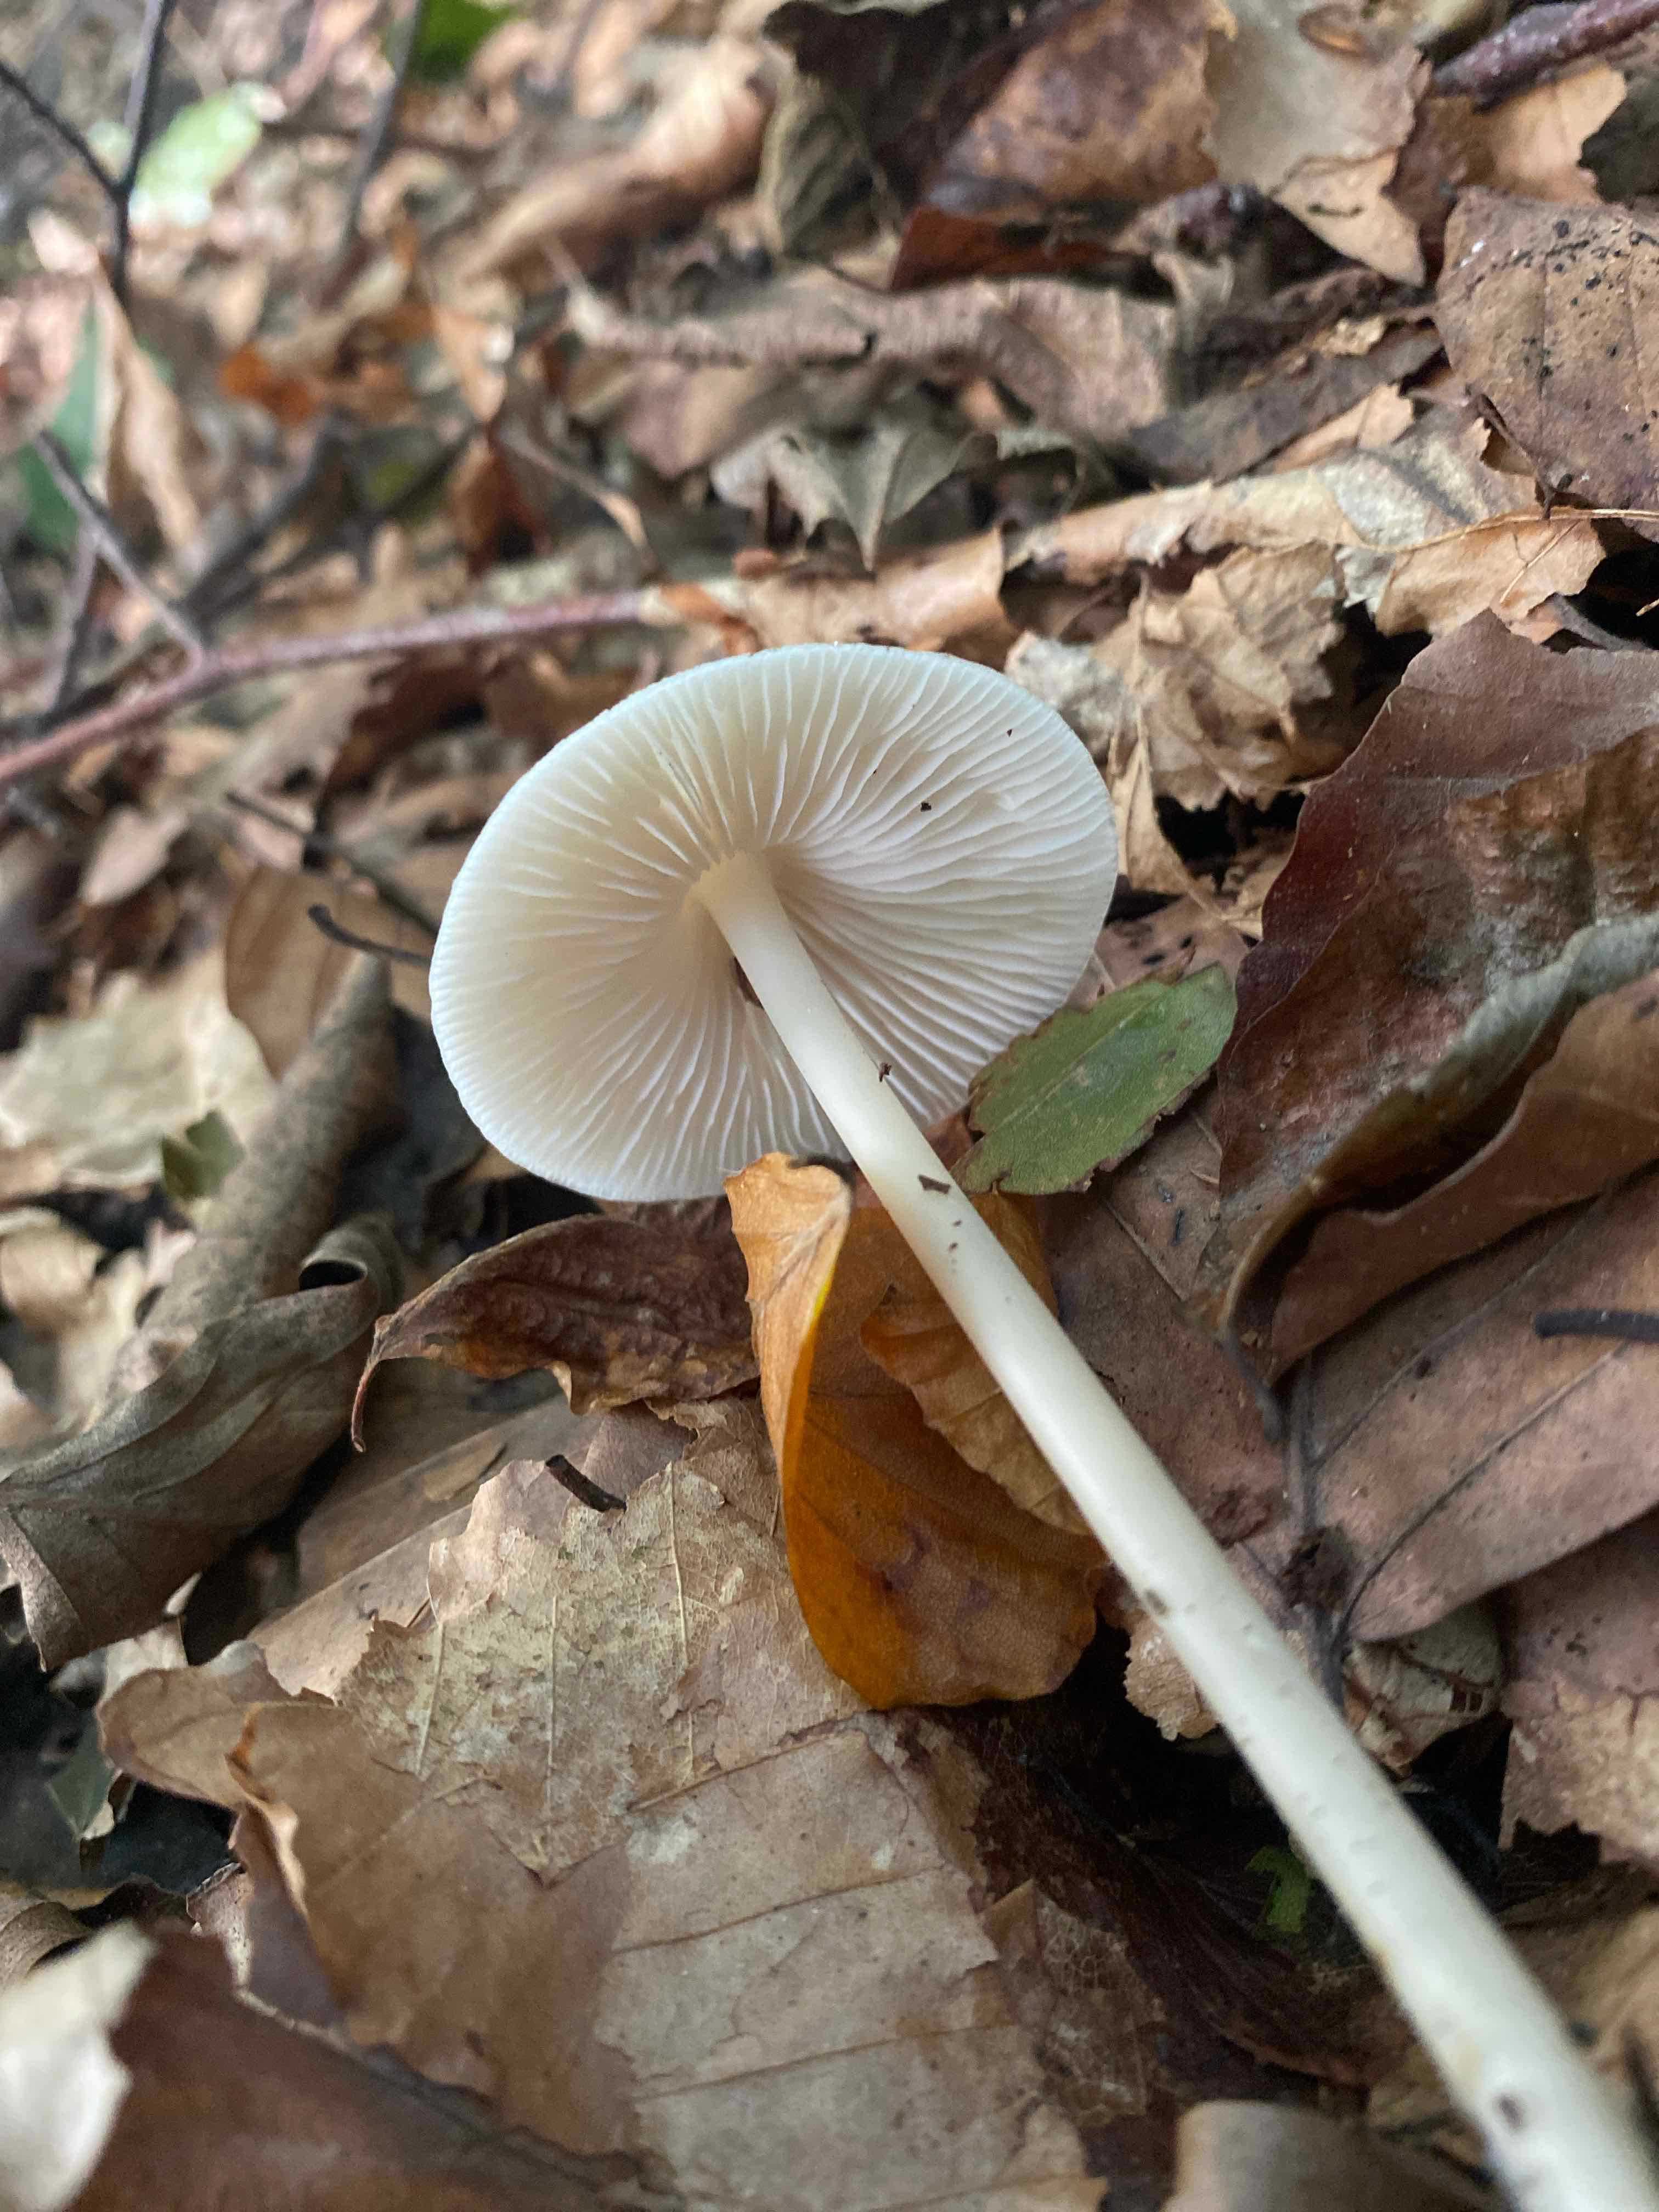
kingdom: Fungi
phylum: Basidiomycota
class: Agaricomycetes
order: Agaricales
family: Mycenaceae
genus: Mycena
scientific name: Mycena galericulata
